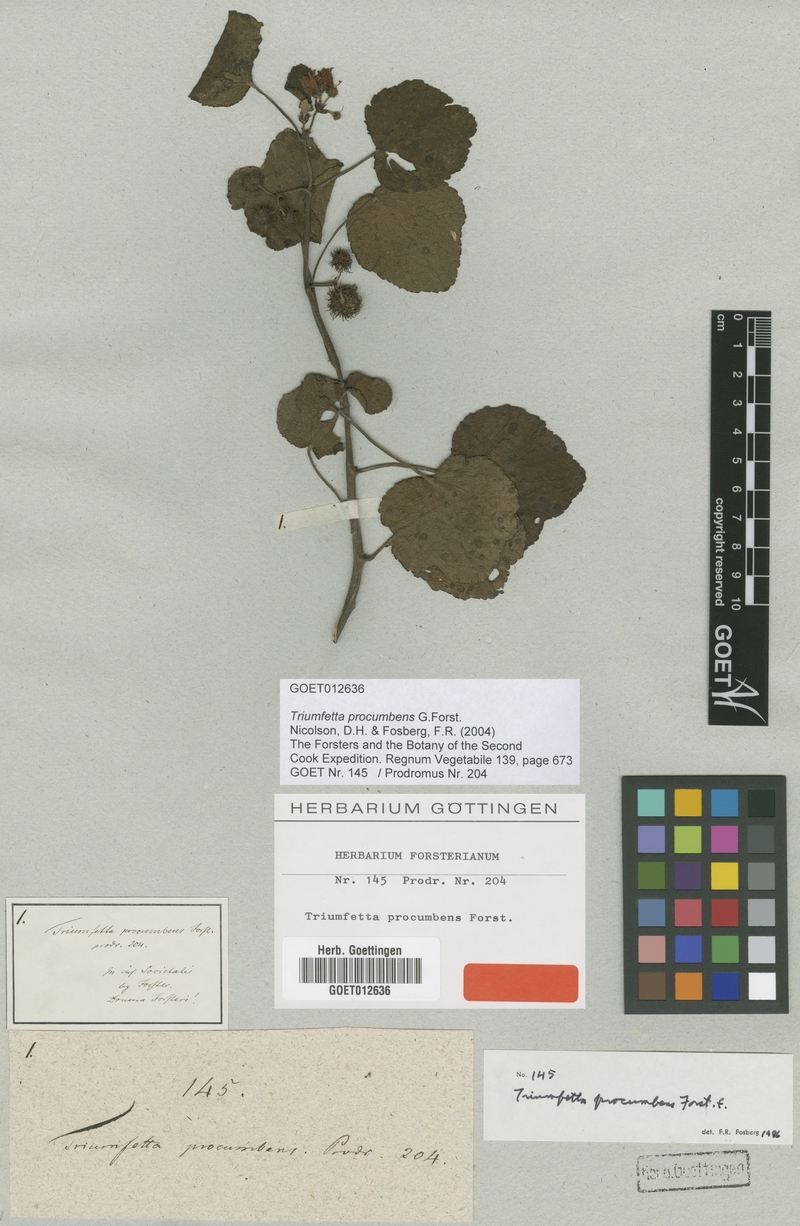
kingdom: Plantae
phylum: Tracheophyta
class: Magnoliopsida
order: Malvales
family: Malvaceae
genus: Triumfetta
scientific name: Triumfetta procumbens
